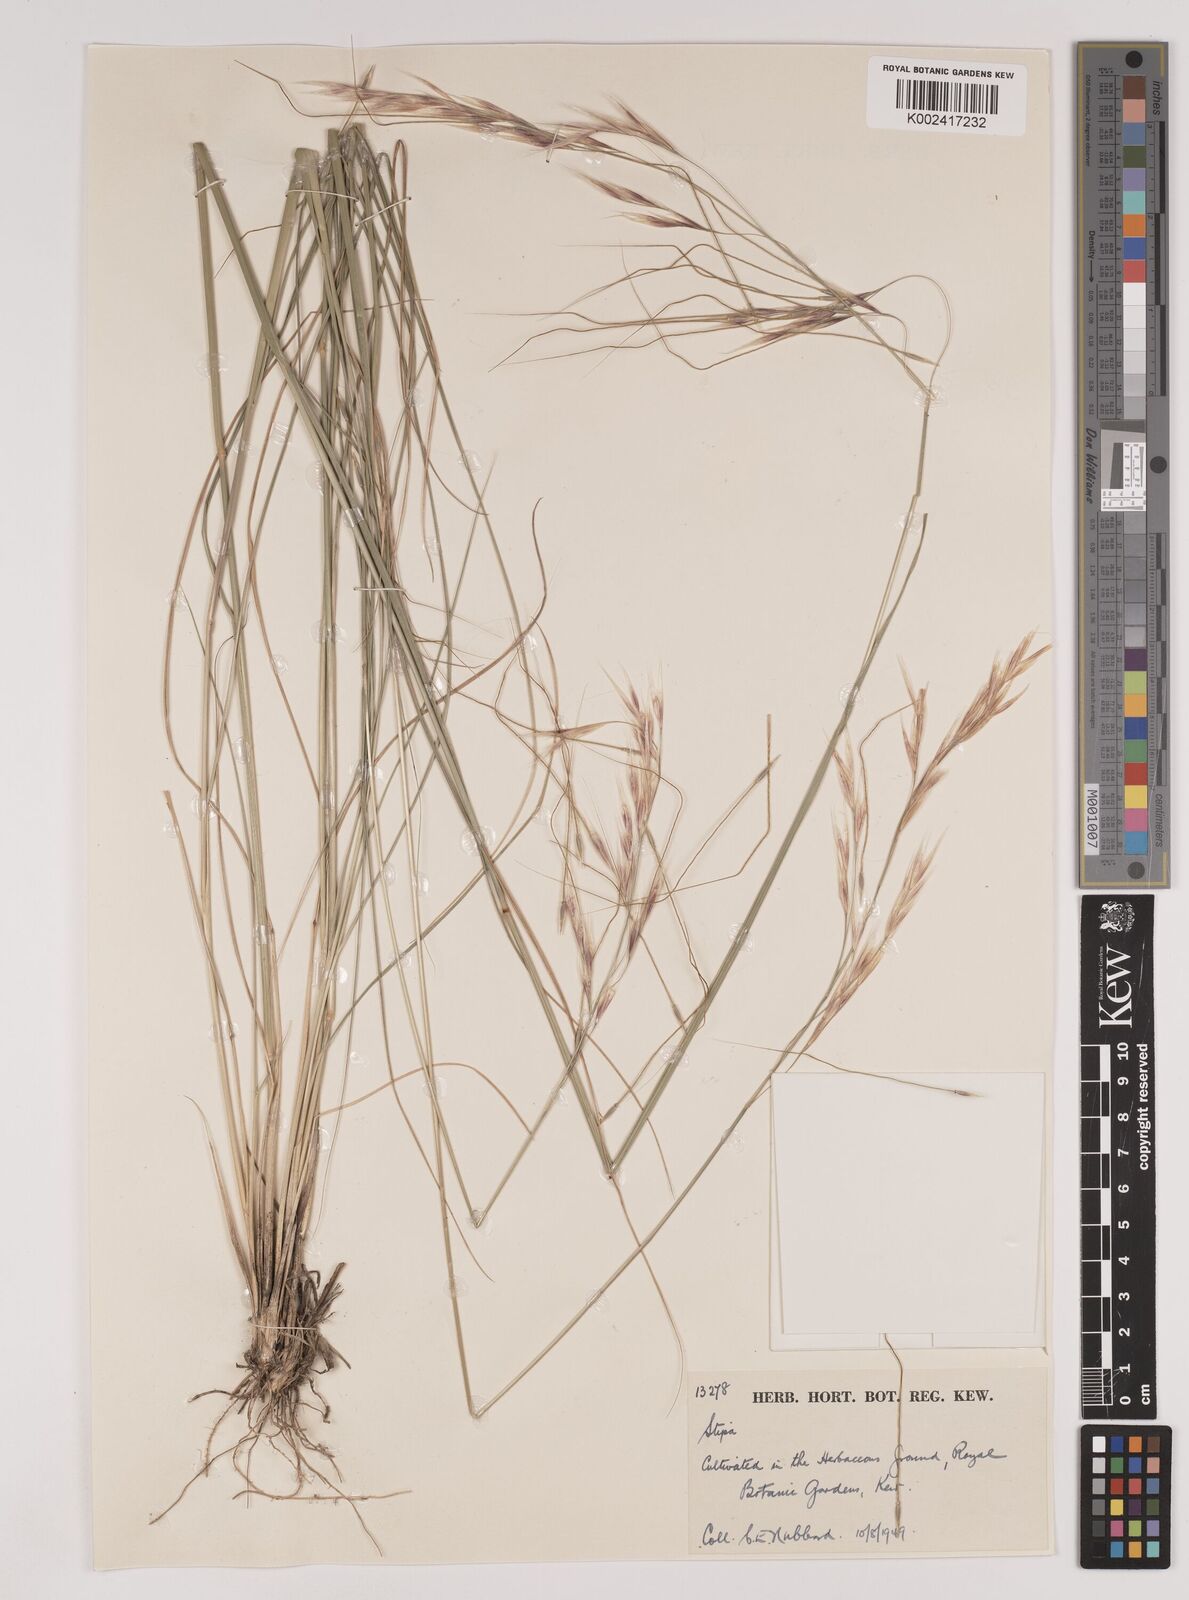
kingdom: Plantae
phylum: Tracheophyta
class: Liliopsida
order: Poales
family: Poaceae
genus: Nassella
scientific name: Nassella neesiana
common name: American needle-grass
